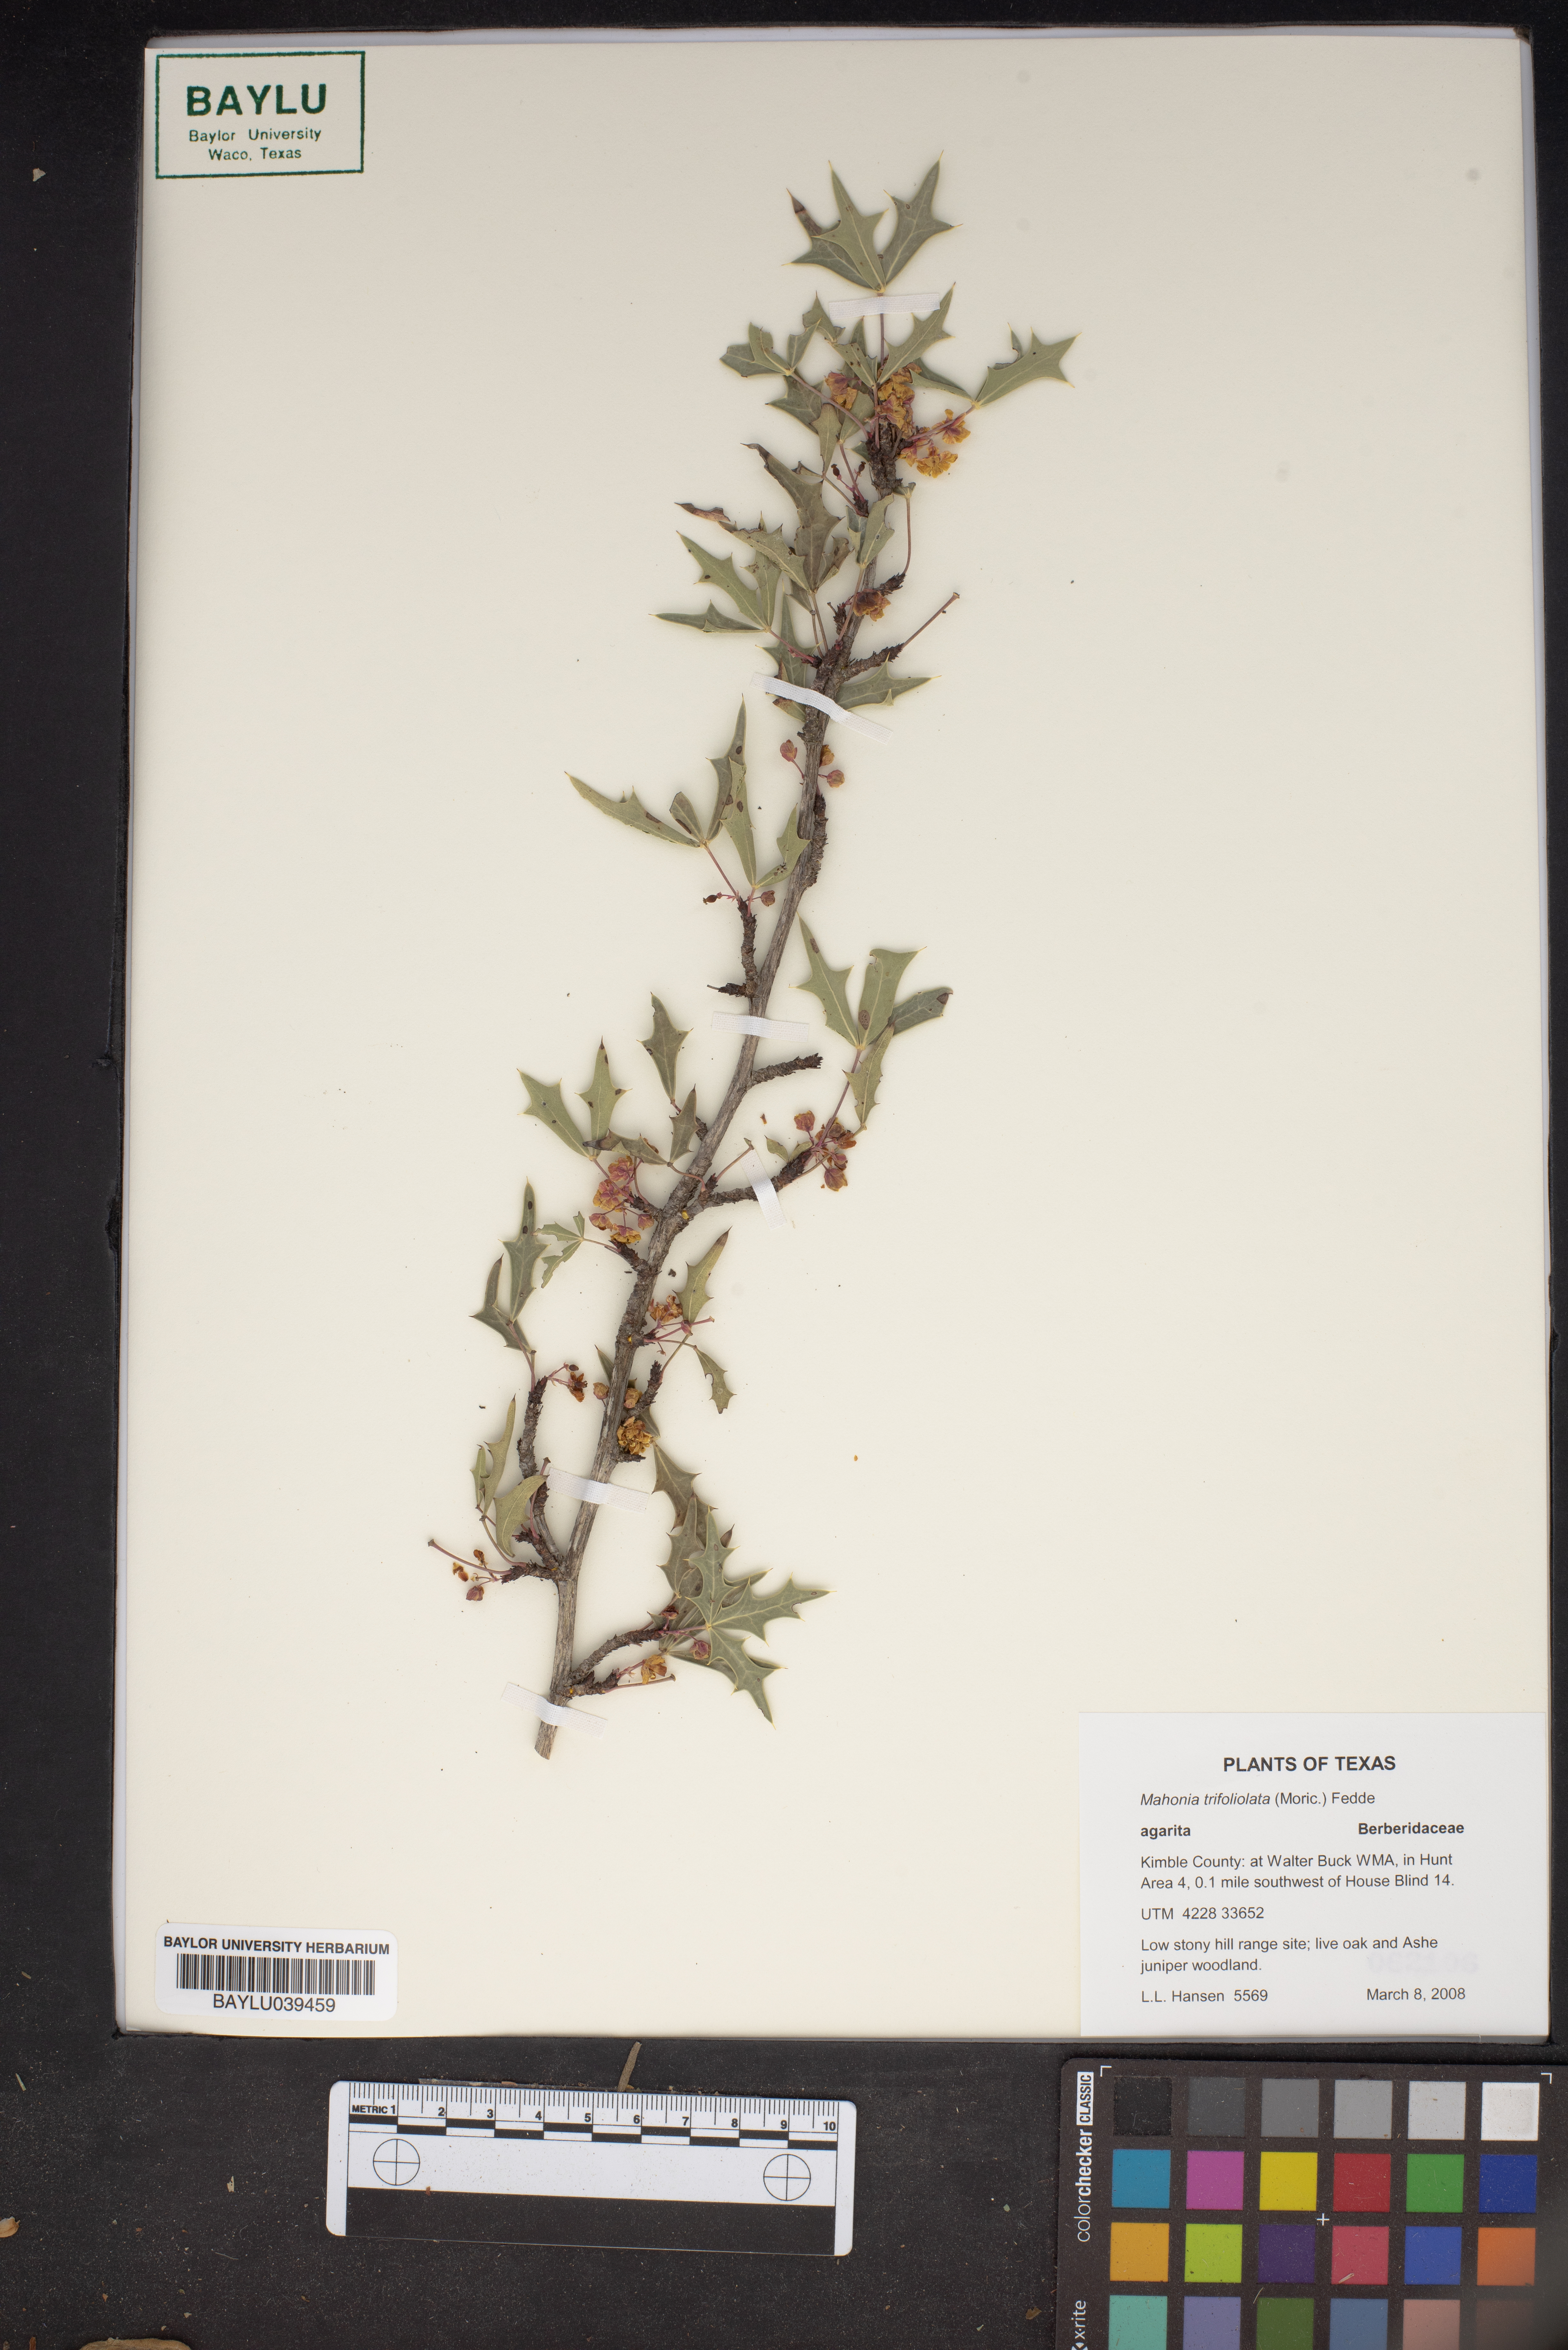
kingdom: Plantae
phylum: Tracheophyta
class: Magnoliopsida
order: Ranunculales
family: Berberidaceae
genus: Alloberberis
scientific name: Alloberberis trifoliolata
